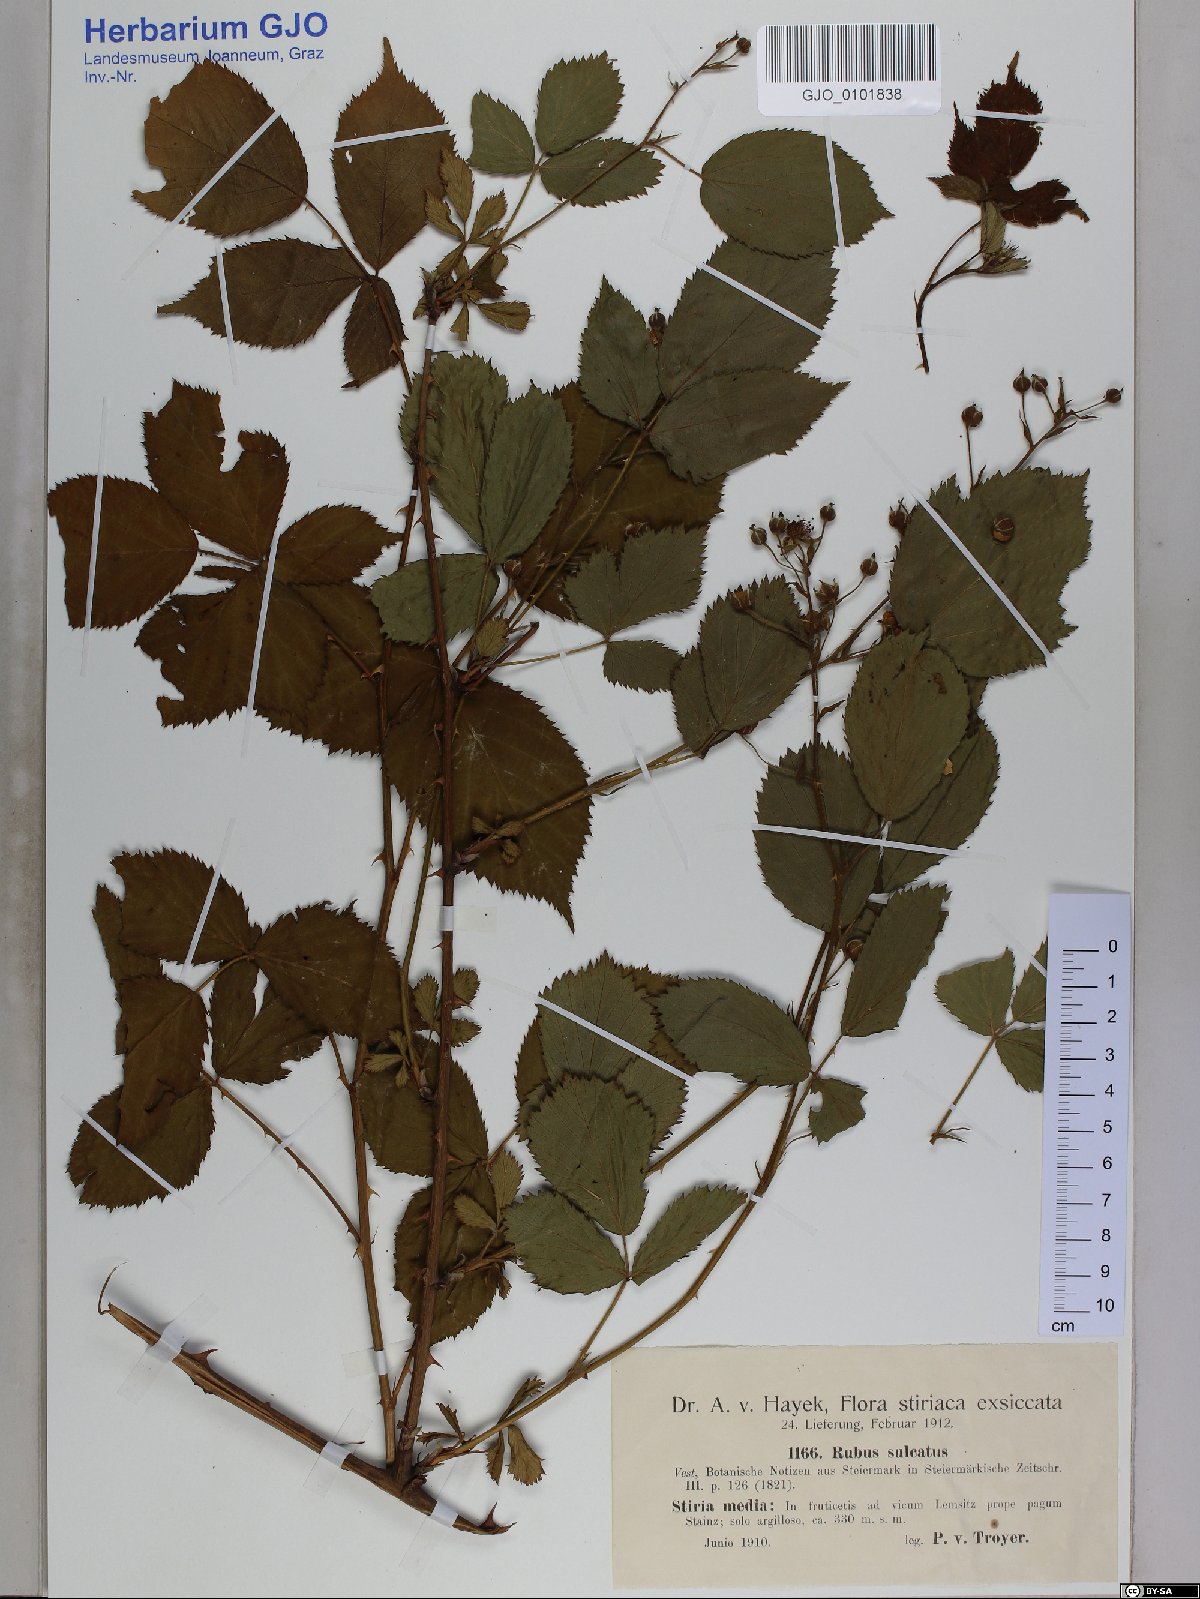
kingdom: Plantae
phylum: Tracheophyta
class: Magnoliopsida
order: Rosales
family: Rosaceae
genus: Rubus
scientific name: Rubus sulcatus
